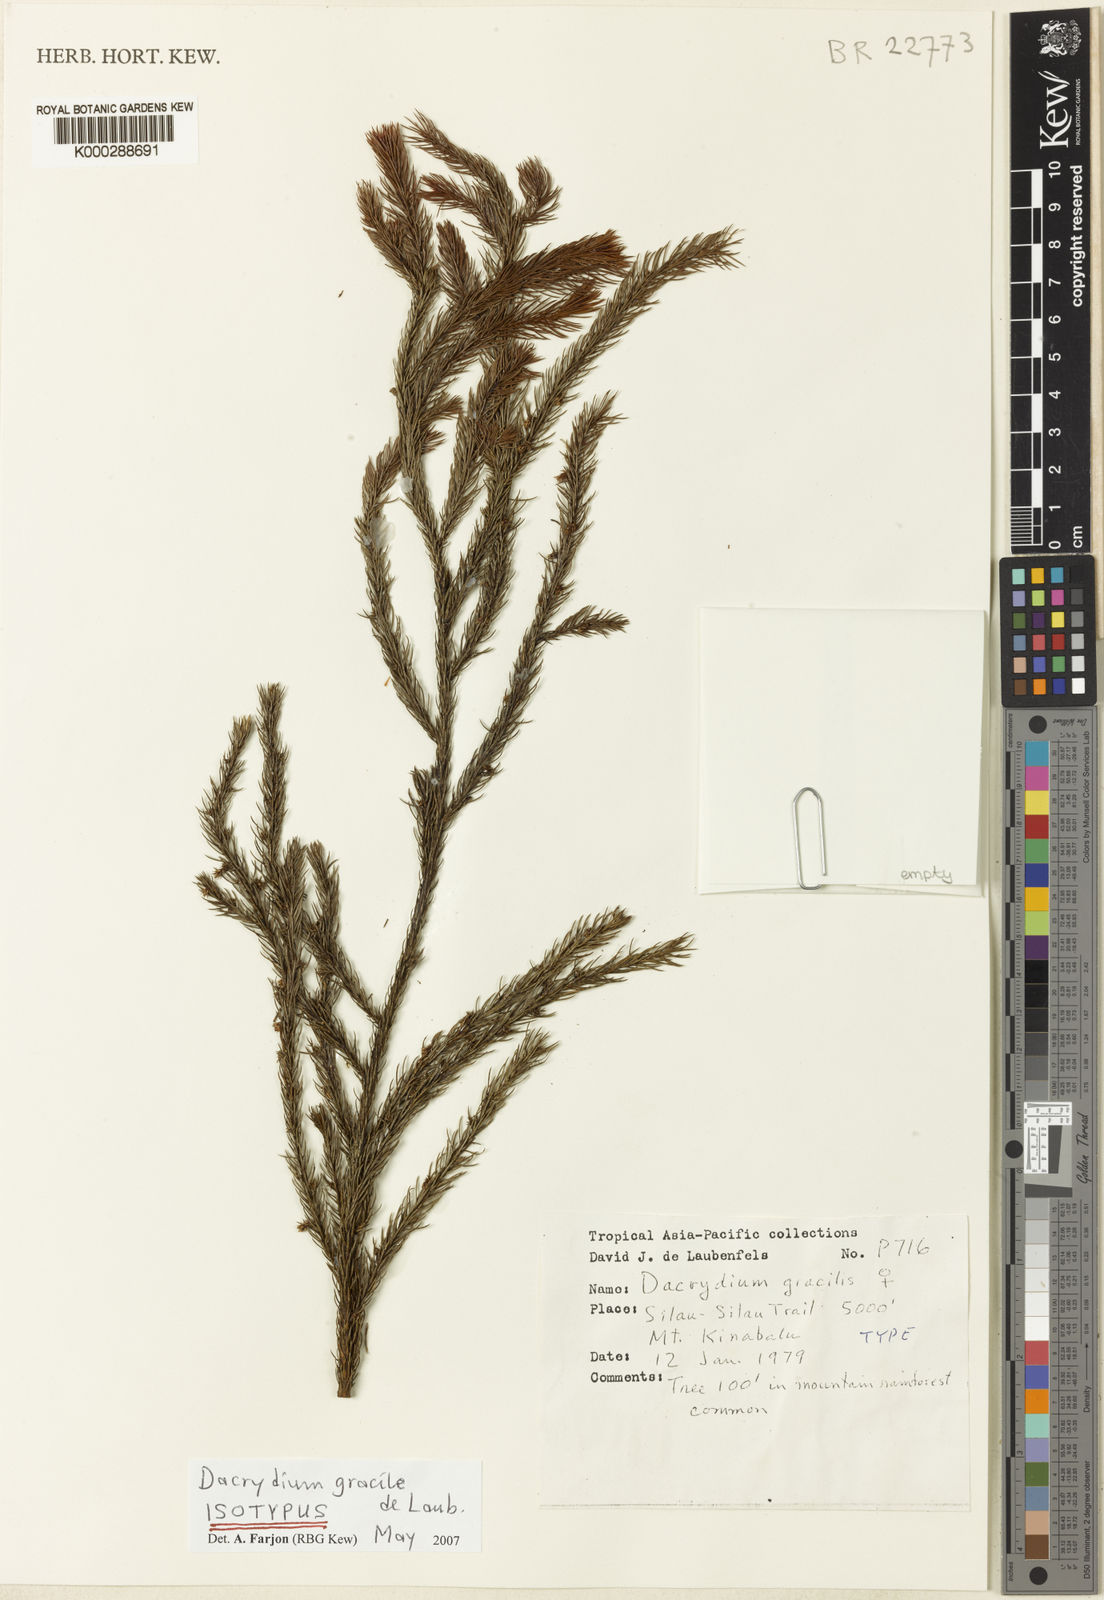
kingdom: Plantae
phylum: Tracheophyta
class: Pinopsida
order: Pinales
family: Podocarpaceae
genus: Dacrydium
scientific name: Dacrydium gracile
